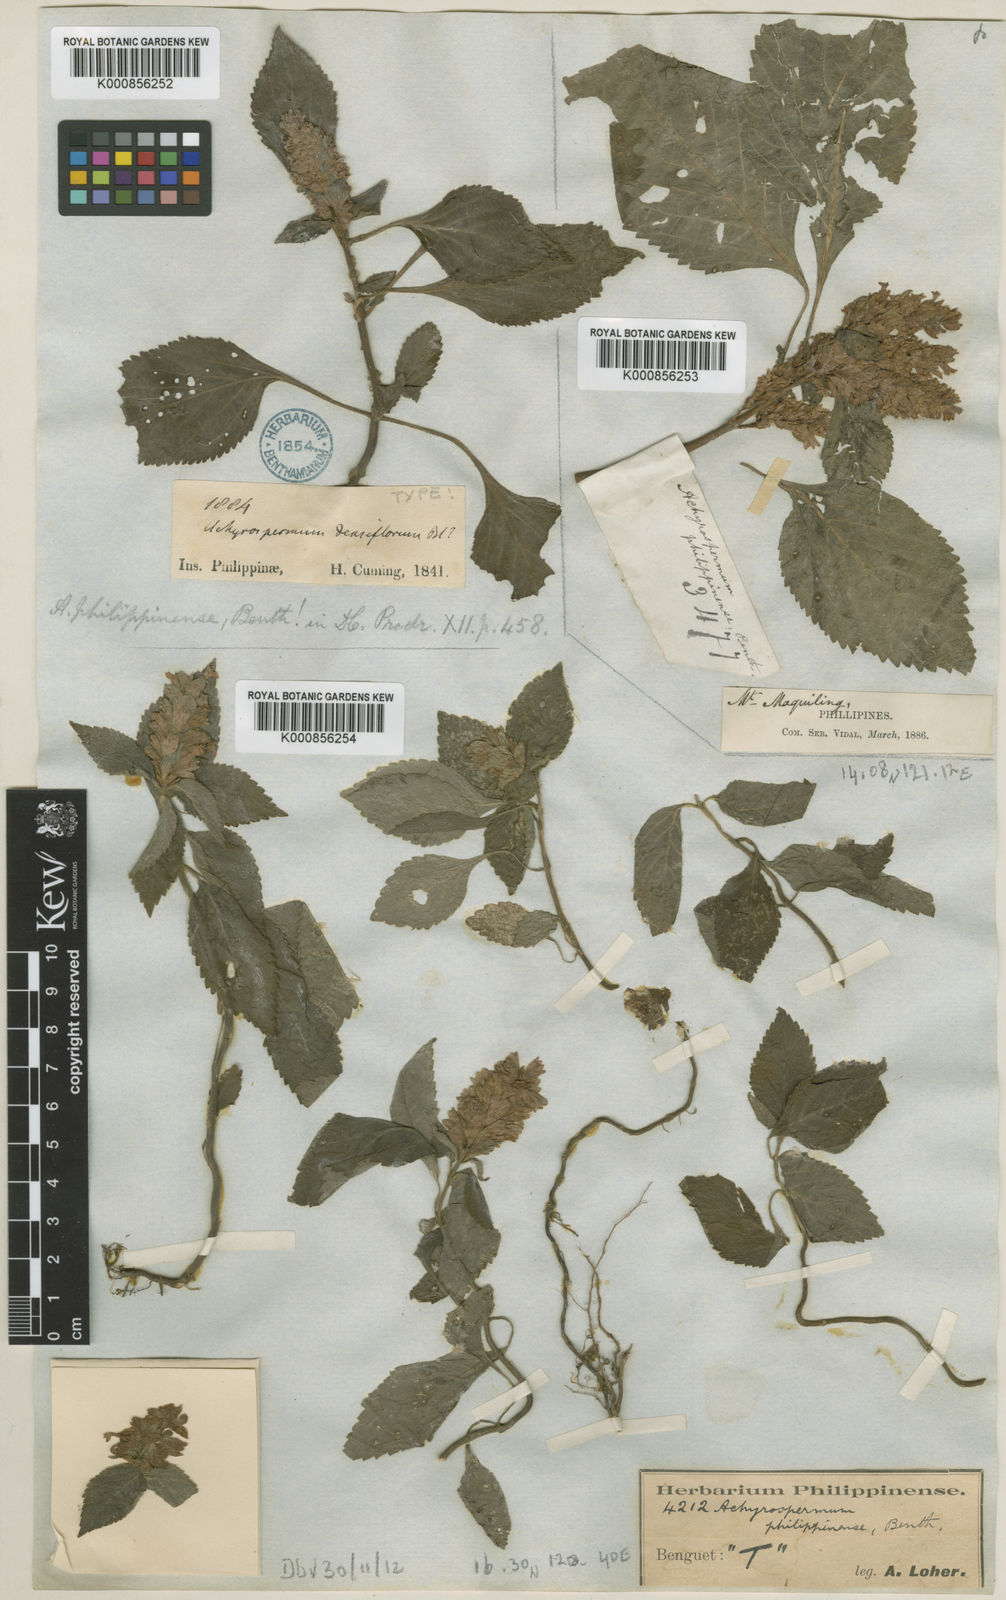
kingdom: Plantae
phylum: Tracheophyta
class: Magnoliopsida
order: Lamiales
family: Lamiaceae
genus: Achyrospermum
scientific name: Achyrospermum densiflorum
